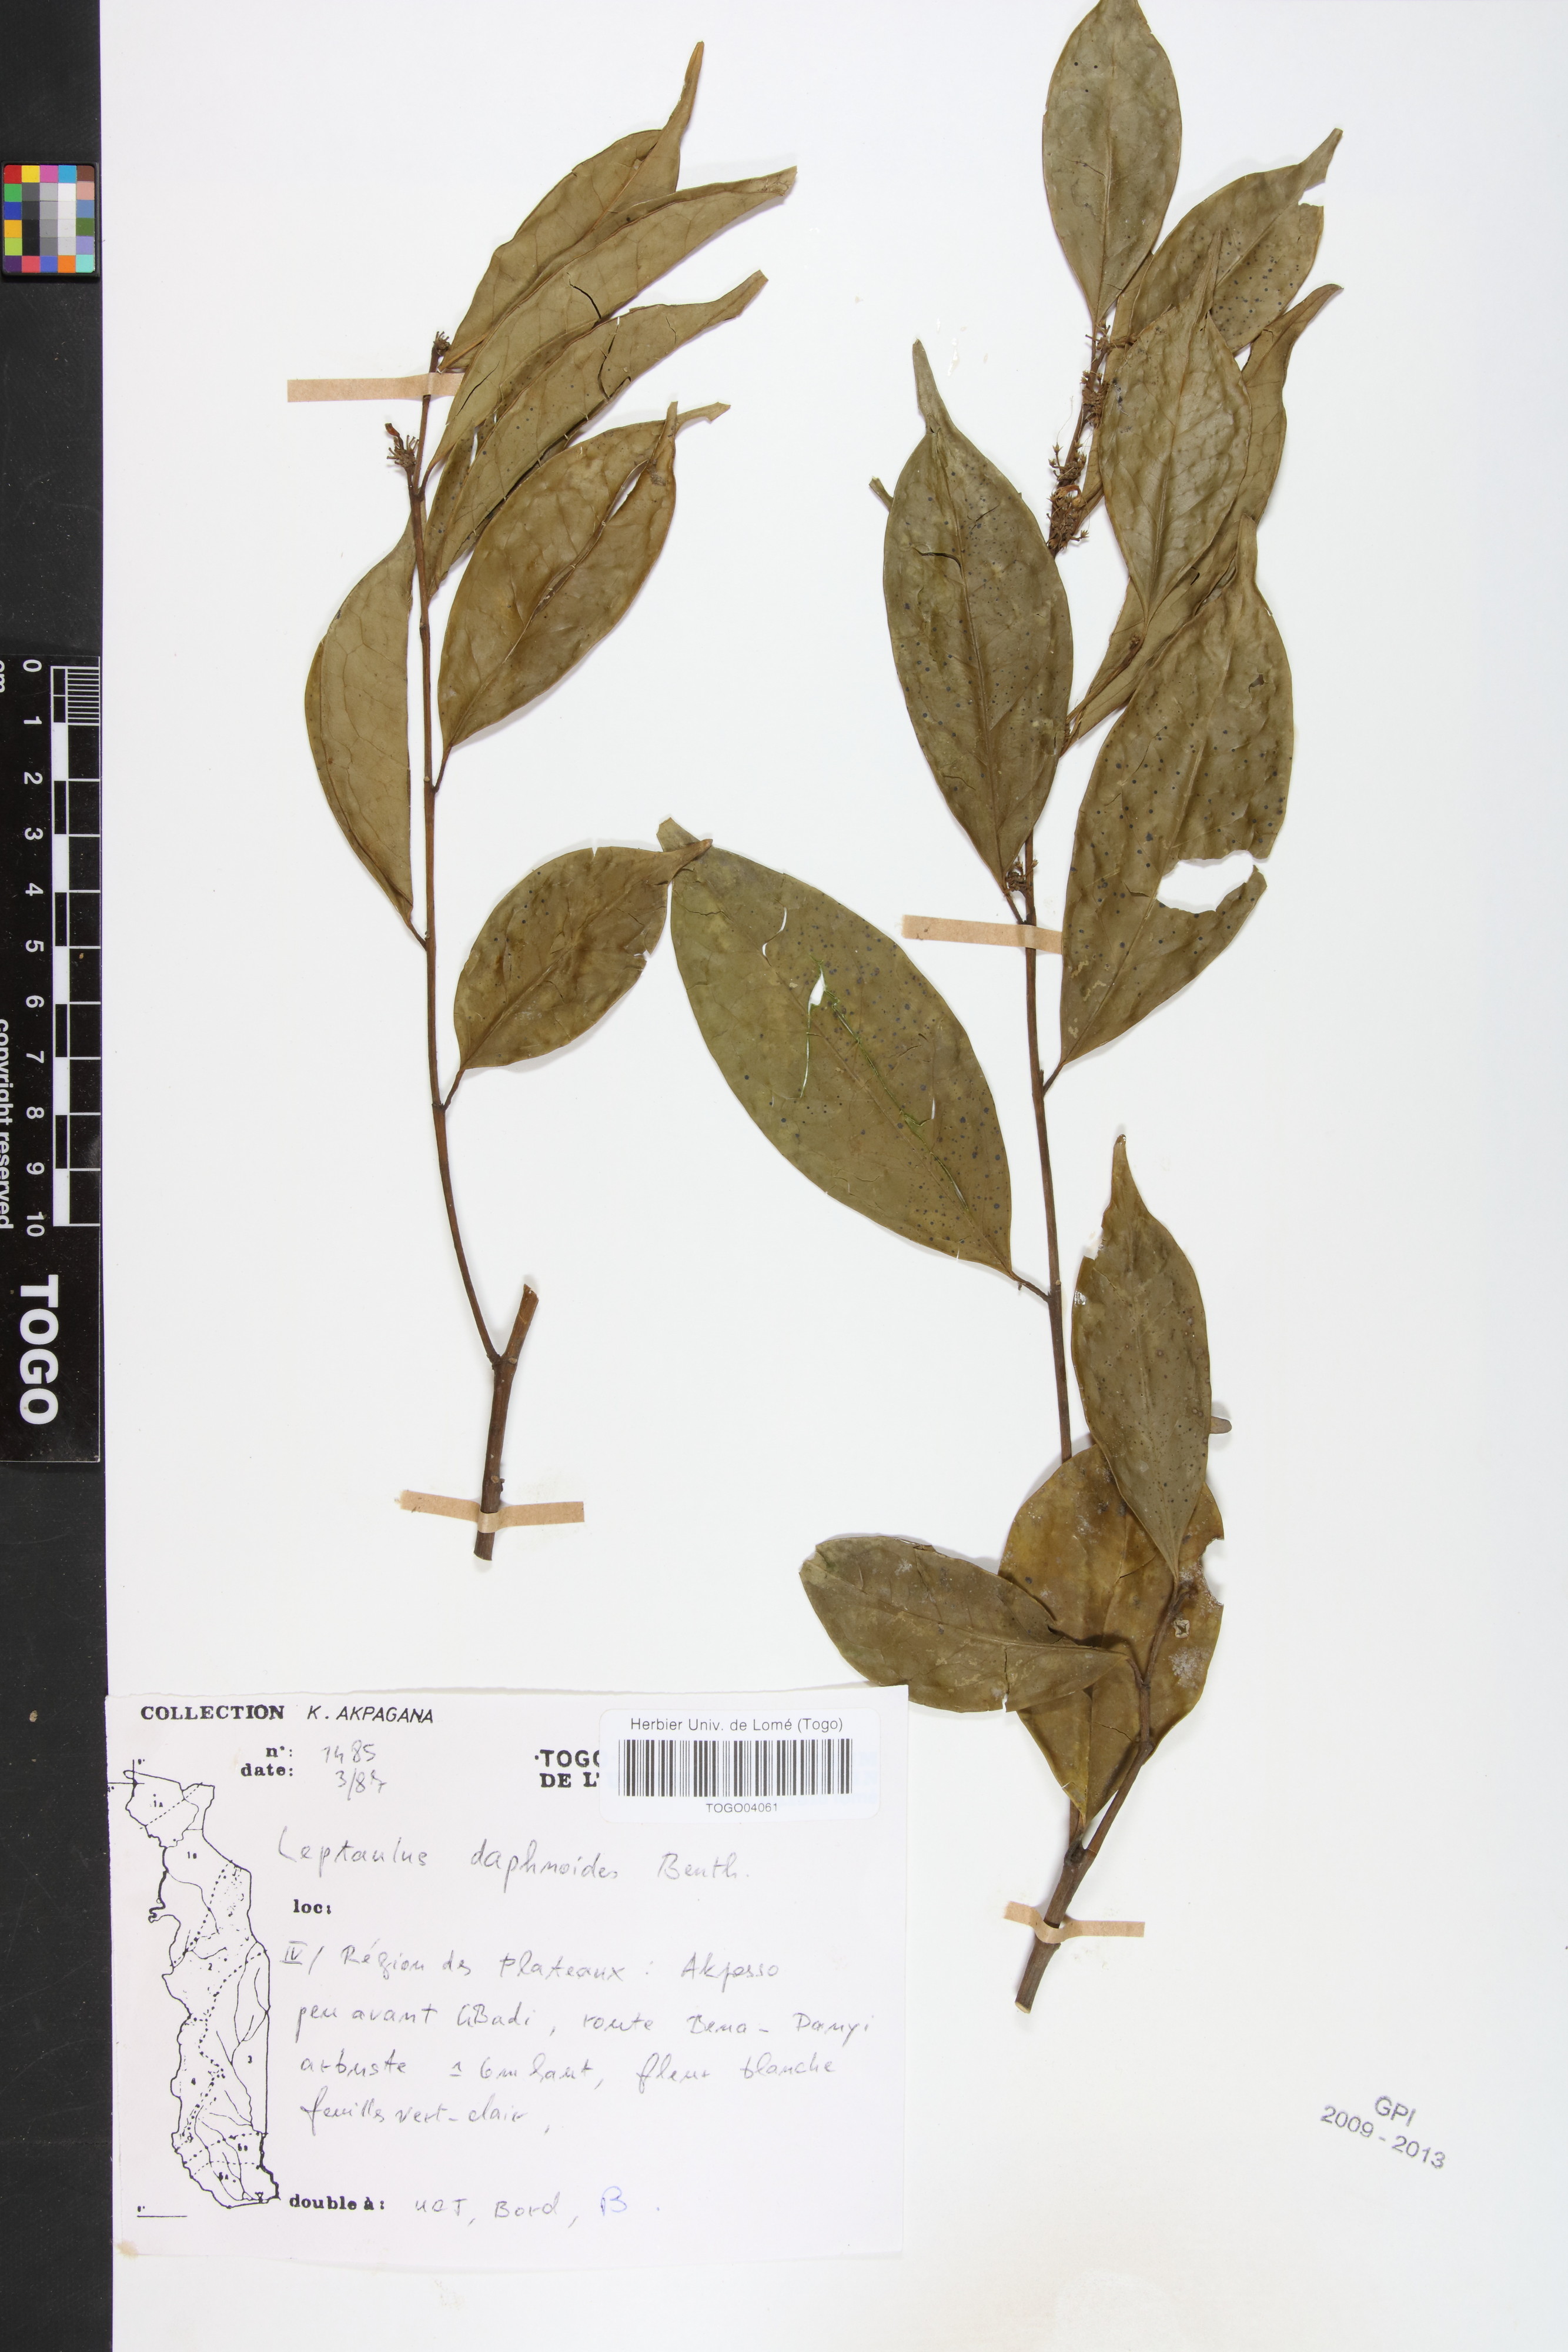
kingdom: Plantae
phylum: Tracheophyta
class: Magnoliopsida
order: Cardiopteridales
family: Cardiopteridaceae
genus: Leptaulus
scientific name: Leptaulus daphnoides
